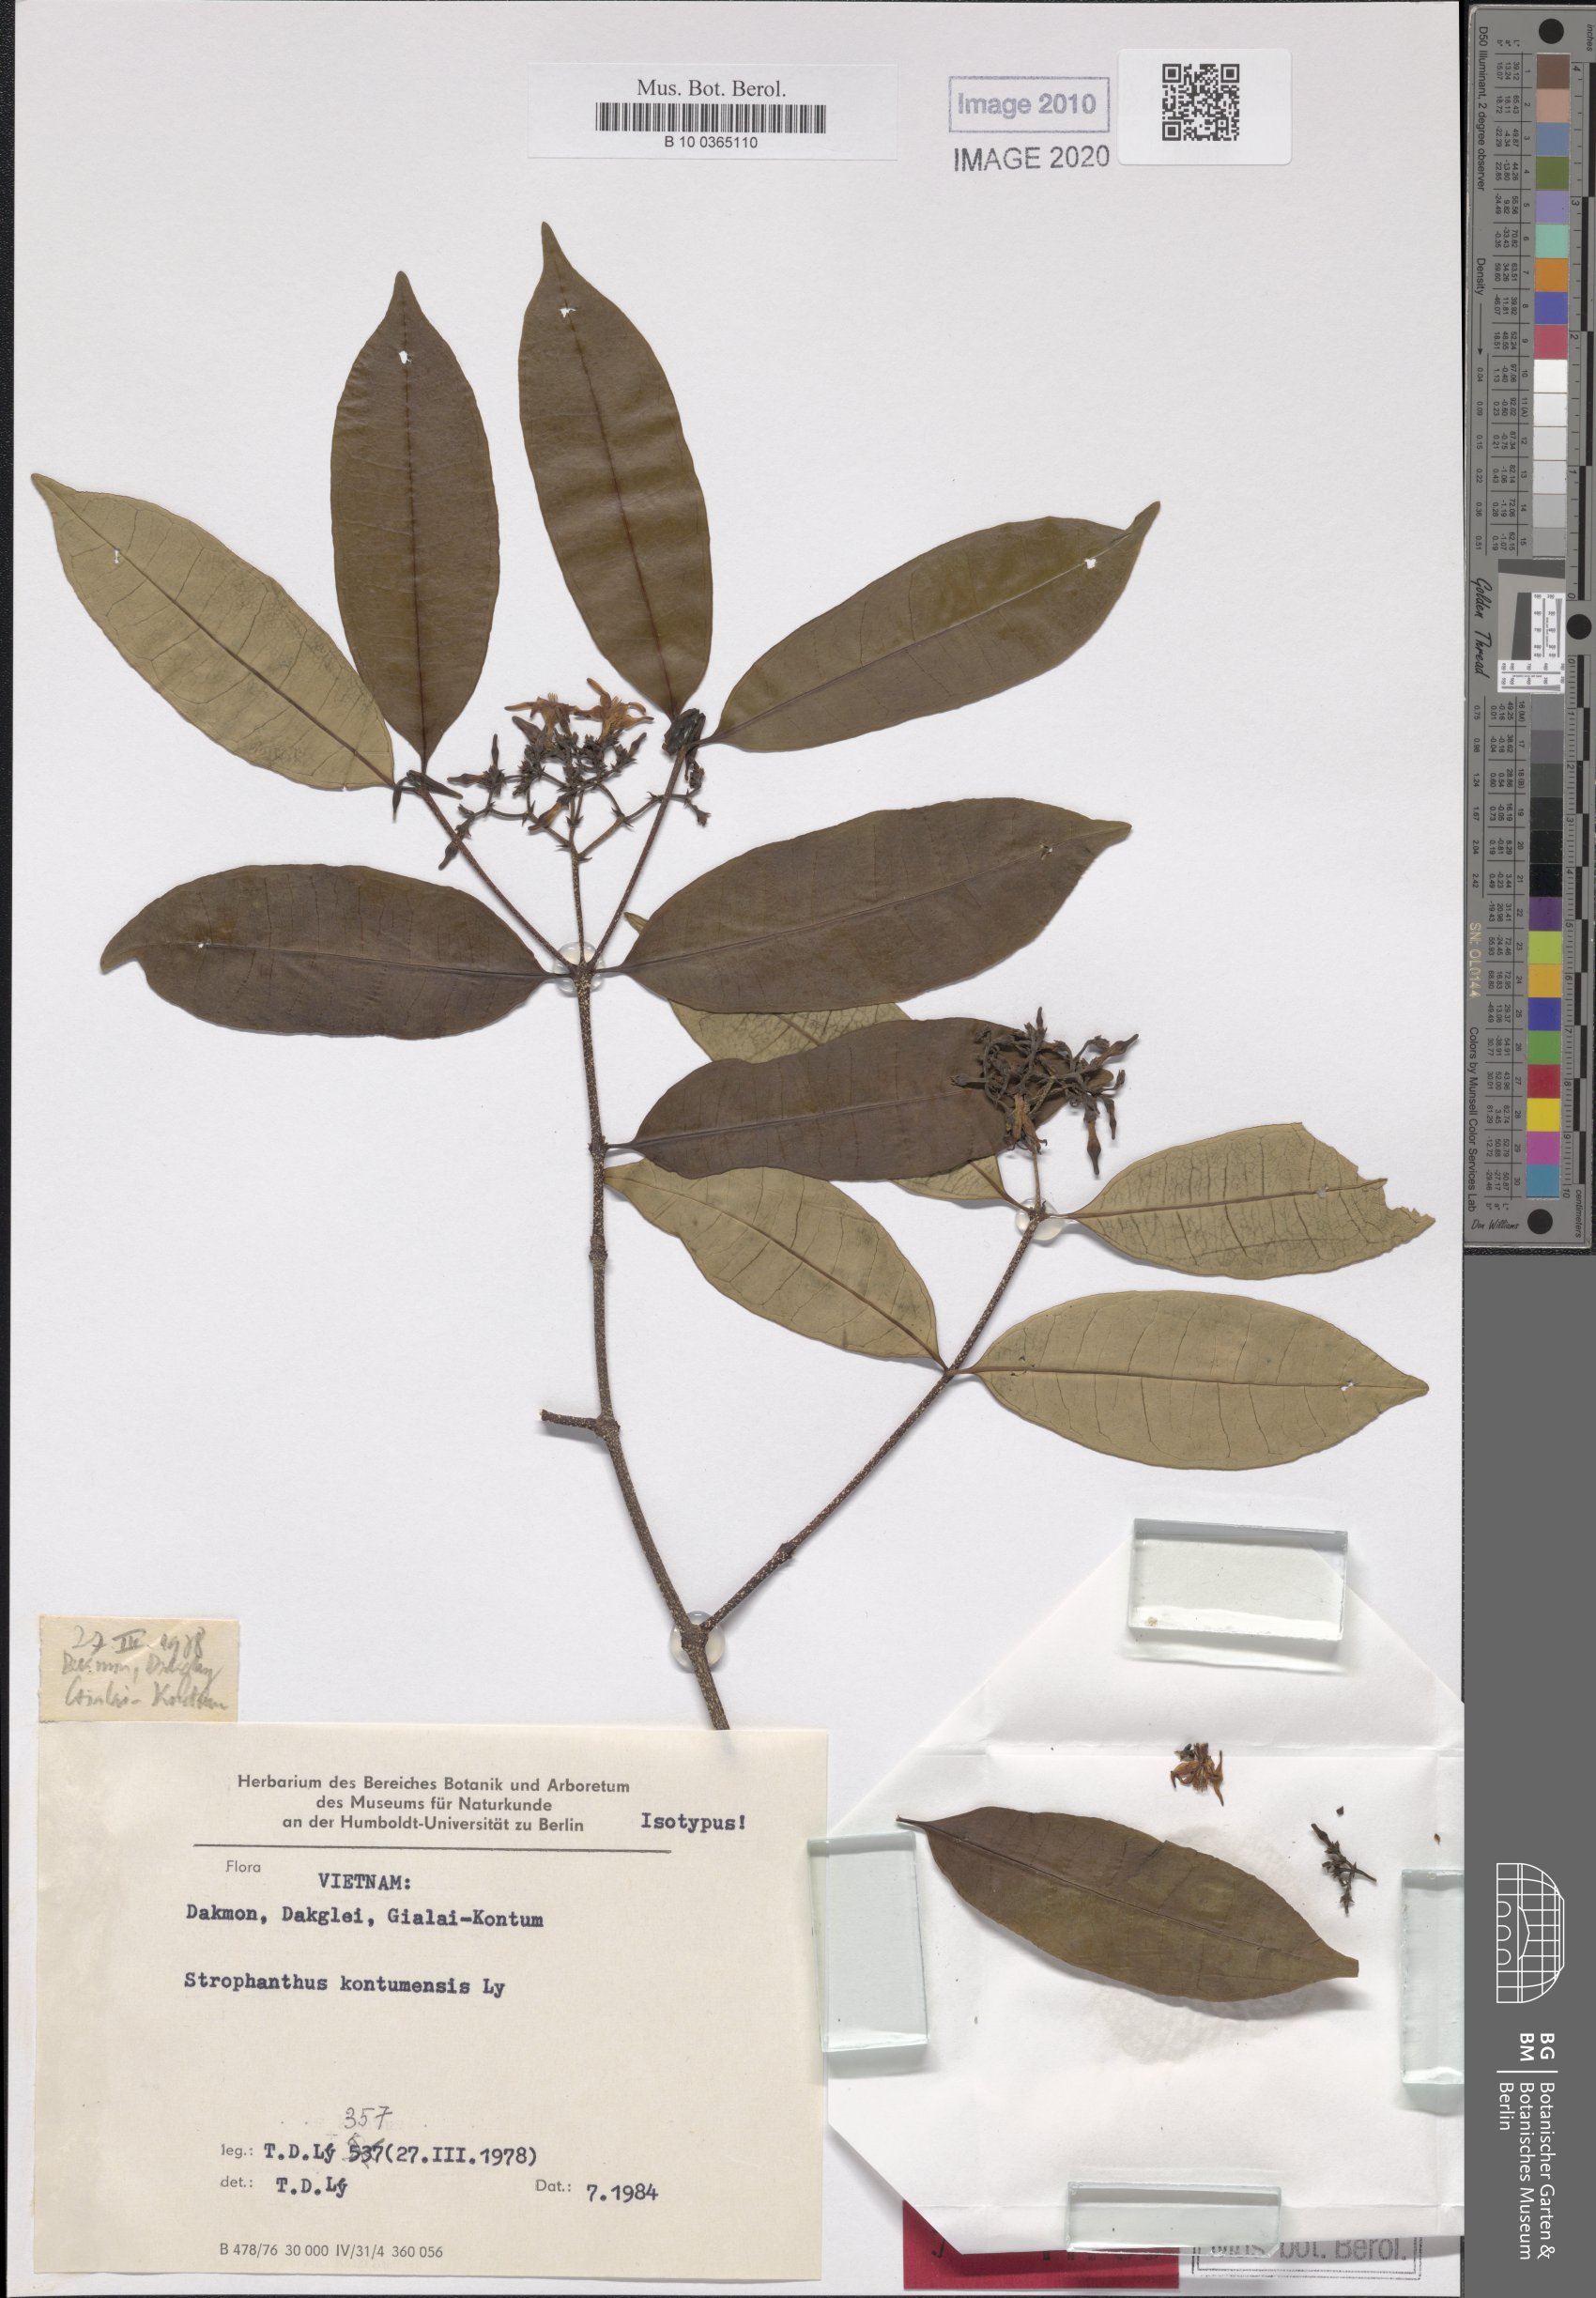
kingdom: Plantae
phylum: Tracheophyta
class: Magnoliopsida
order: Gentianales
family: Apocynaceae
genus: Strophanthus
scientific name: Strophanthus perakensis
